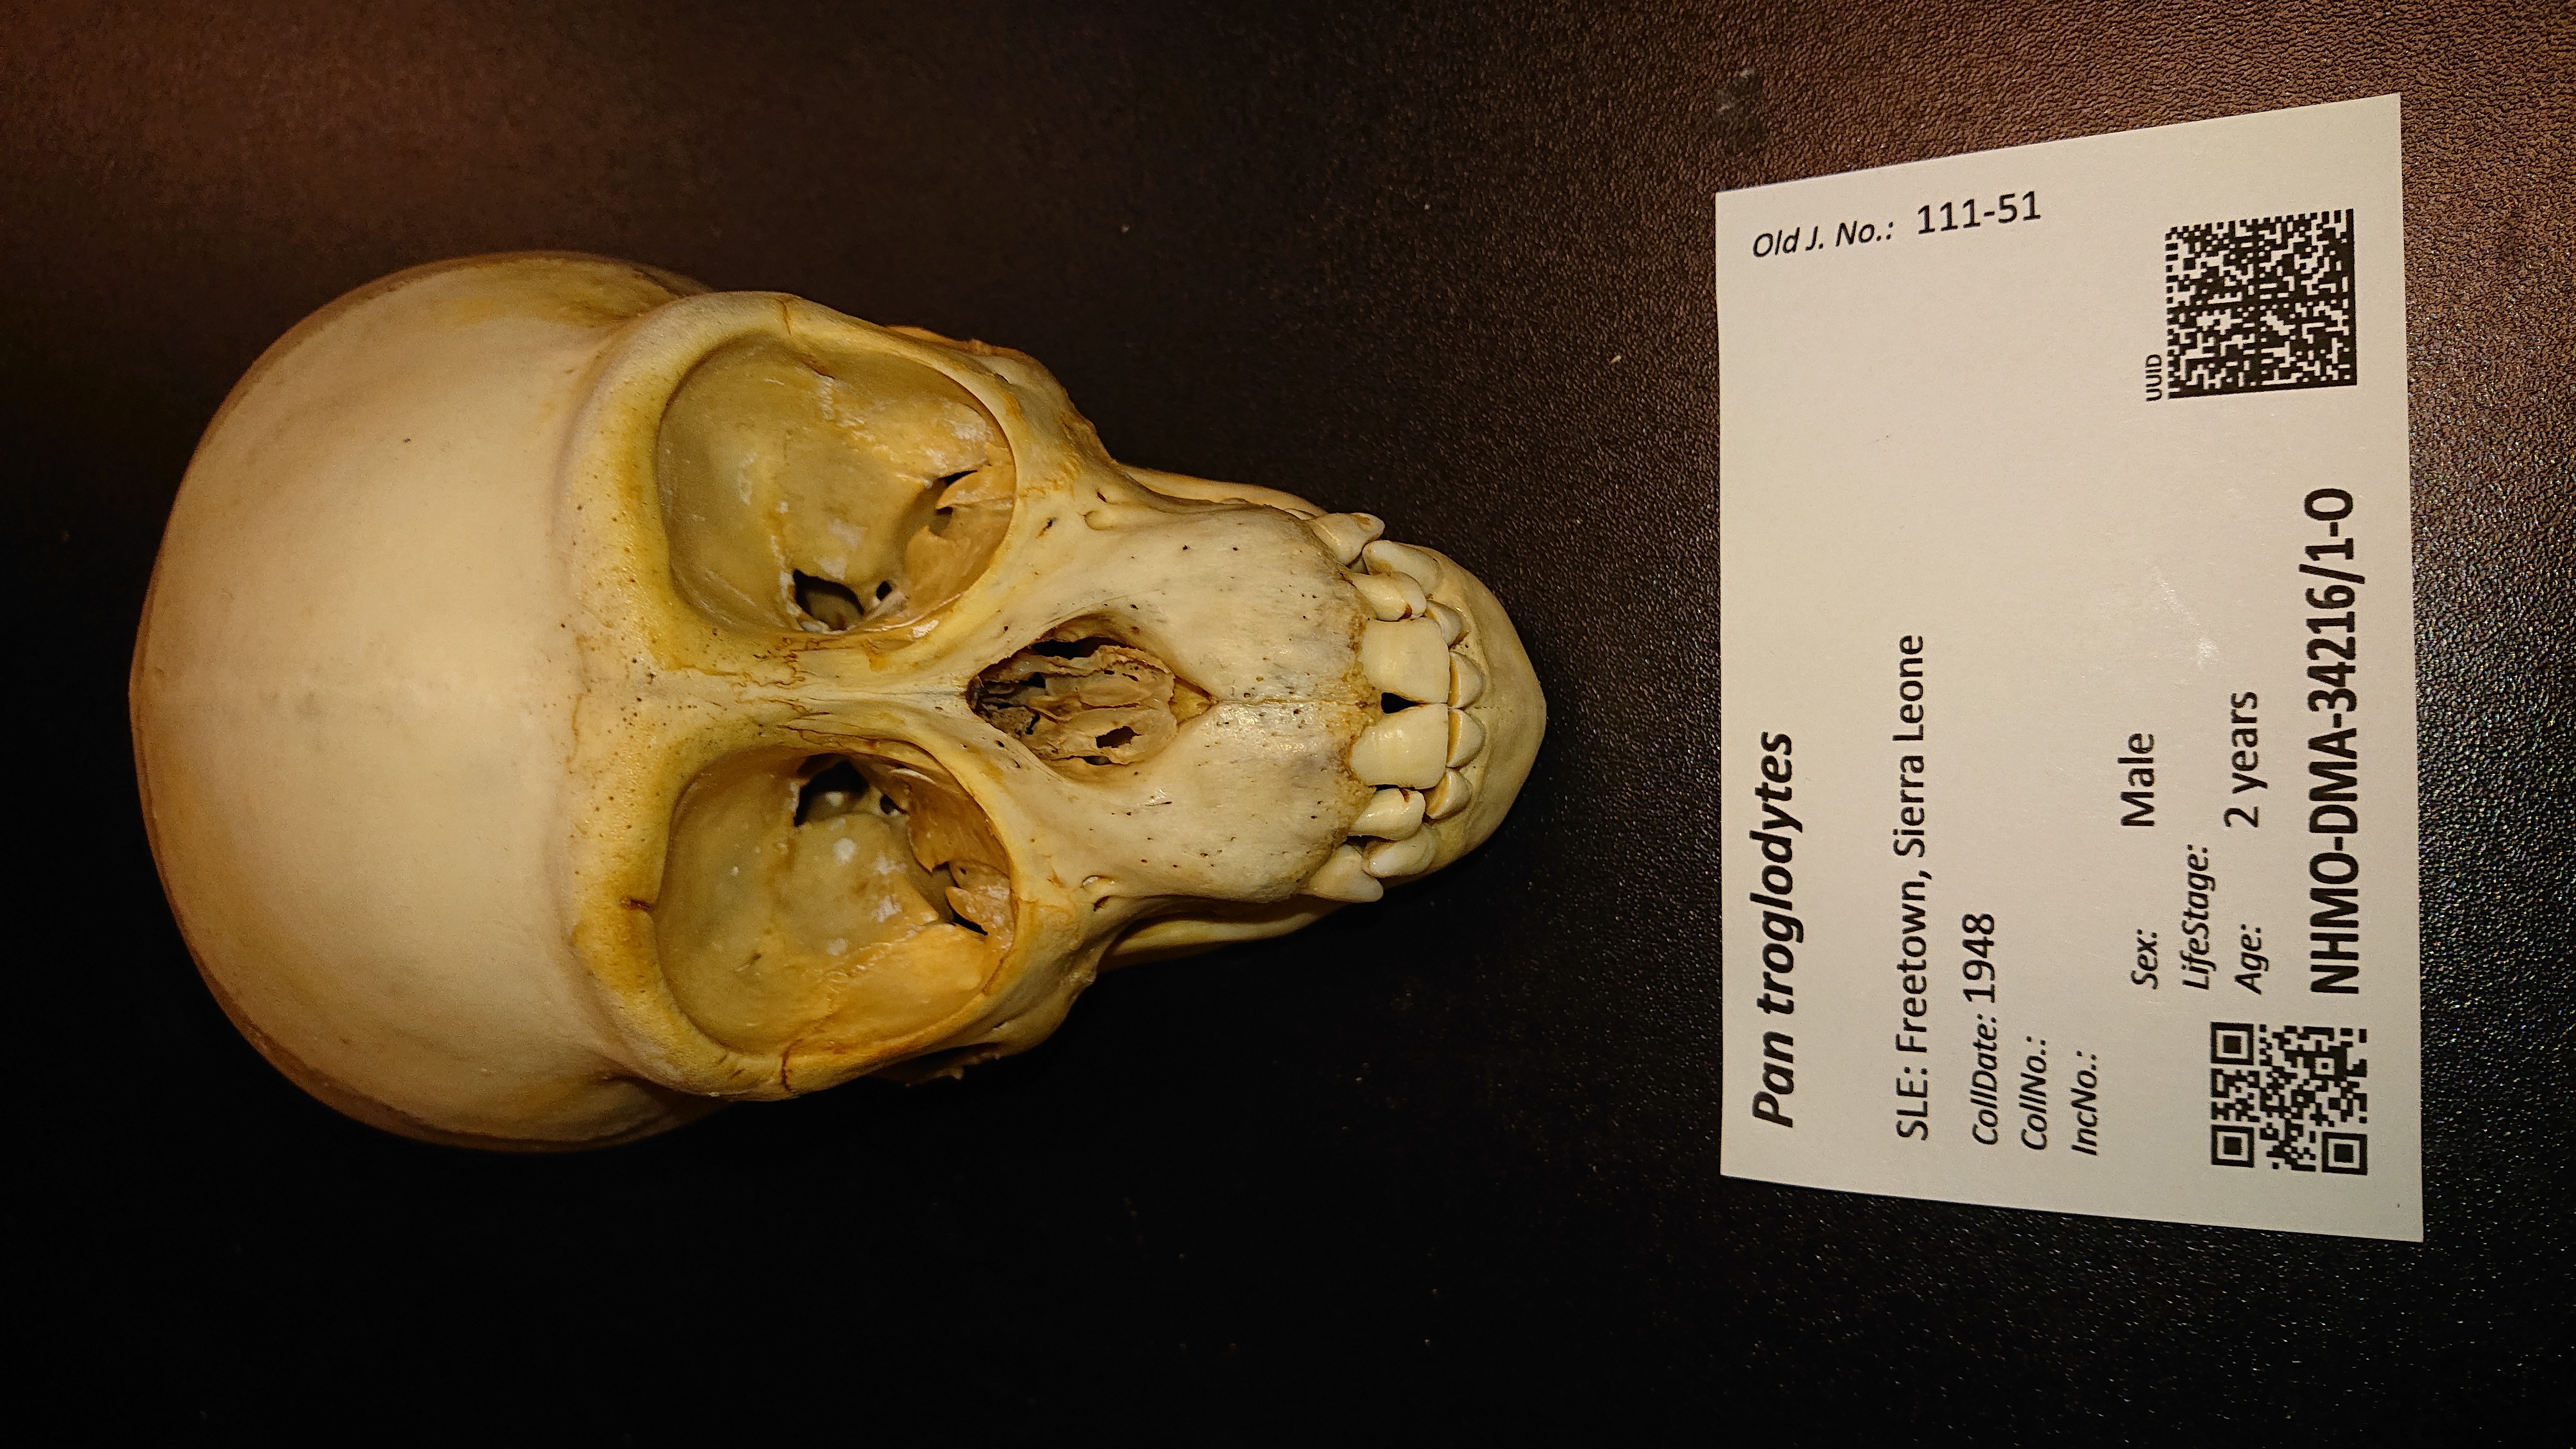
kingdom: Animalia
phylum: Chordata
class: Mammalia
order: Primates
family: Hominidae
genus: Pan
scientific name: Pan troglodytes
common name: Chimpanzee
